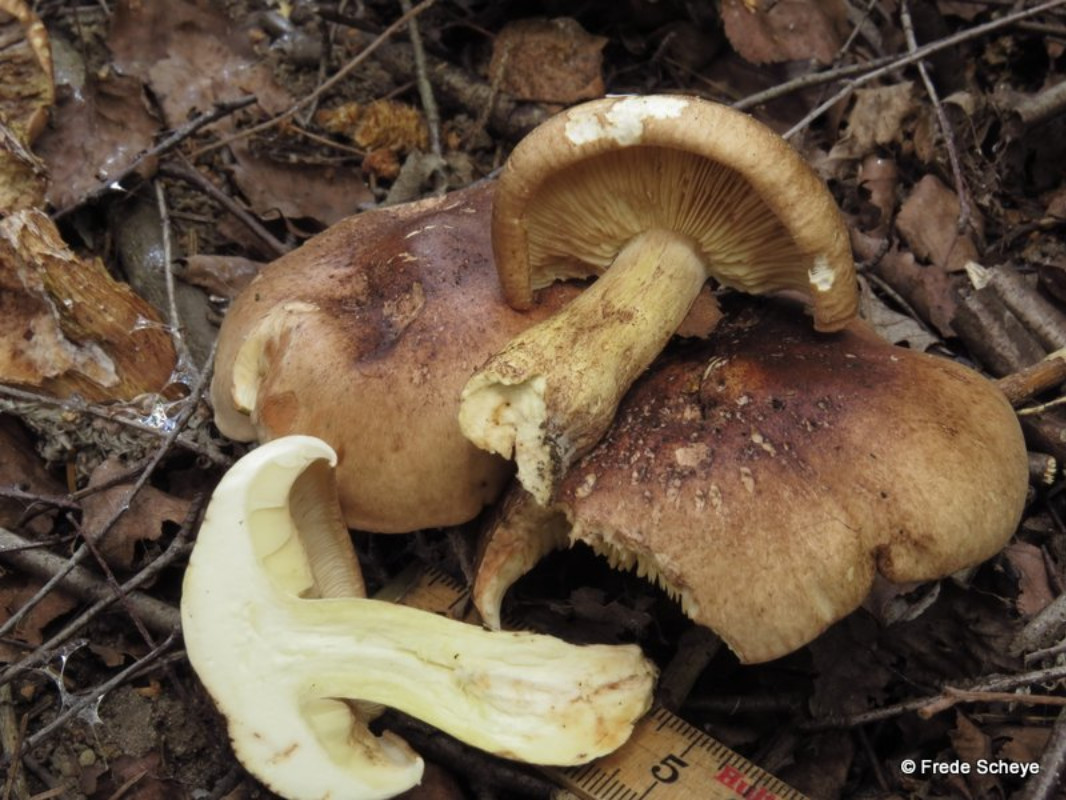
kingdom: Fungi
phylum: Basidiomycota
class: Agaricomycetes
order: Agaricales
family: Tricholomataceae
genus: Tricholoma
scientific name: Tricholoma fulvum
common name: birke-ridderhat
